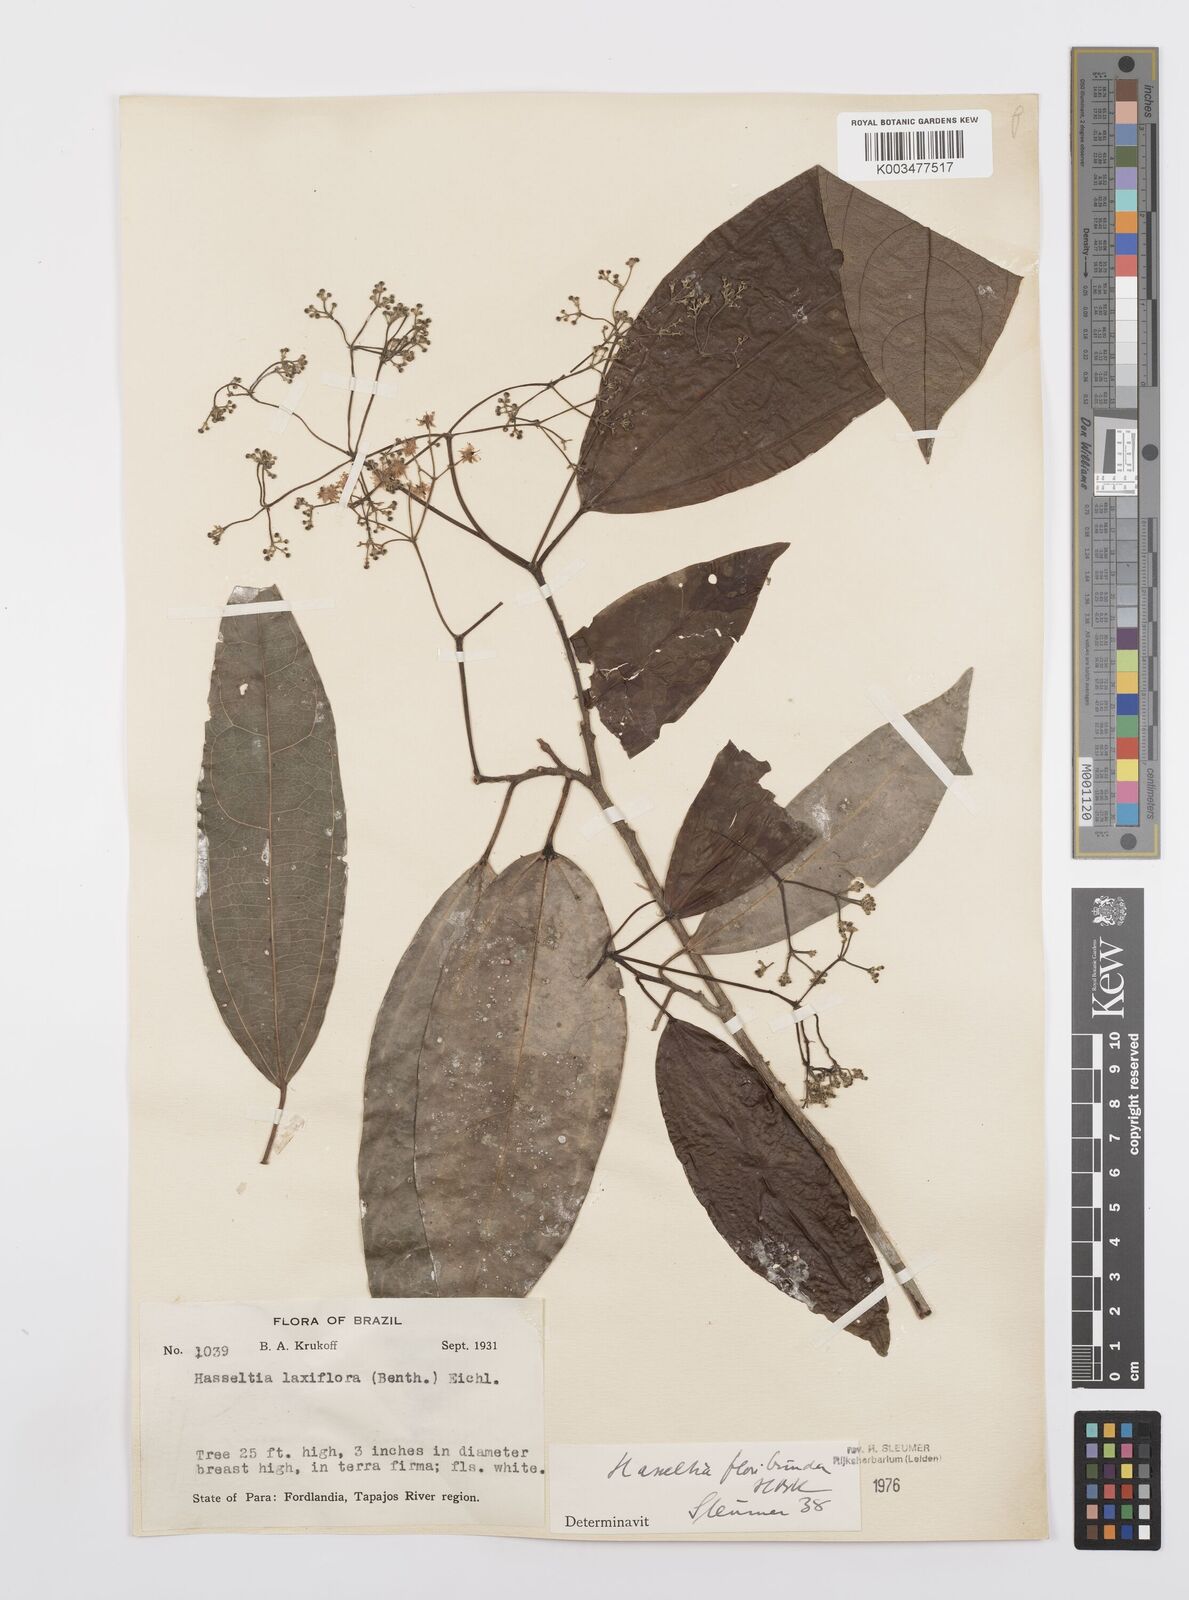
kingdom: Plantae
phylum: Tracheophyta
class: Magnoliopsida
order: Malpighiales
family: Salicaceae
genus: Hasseltia
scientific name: Hasseltia floribunda
